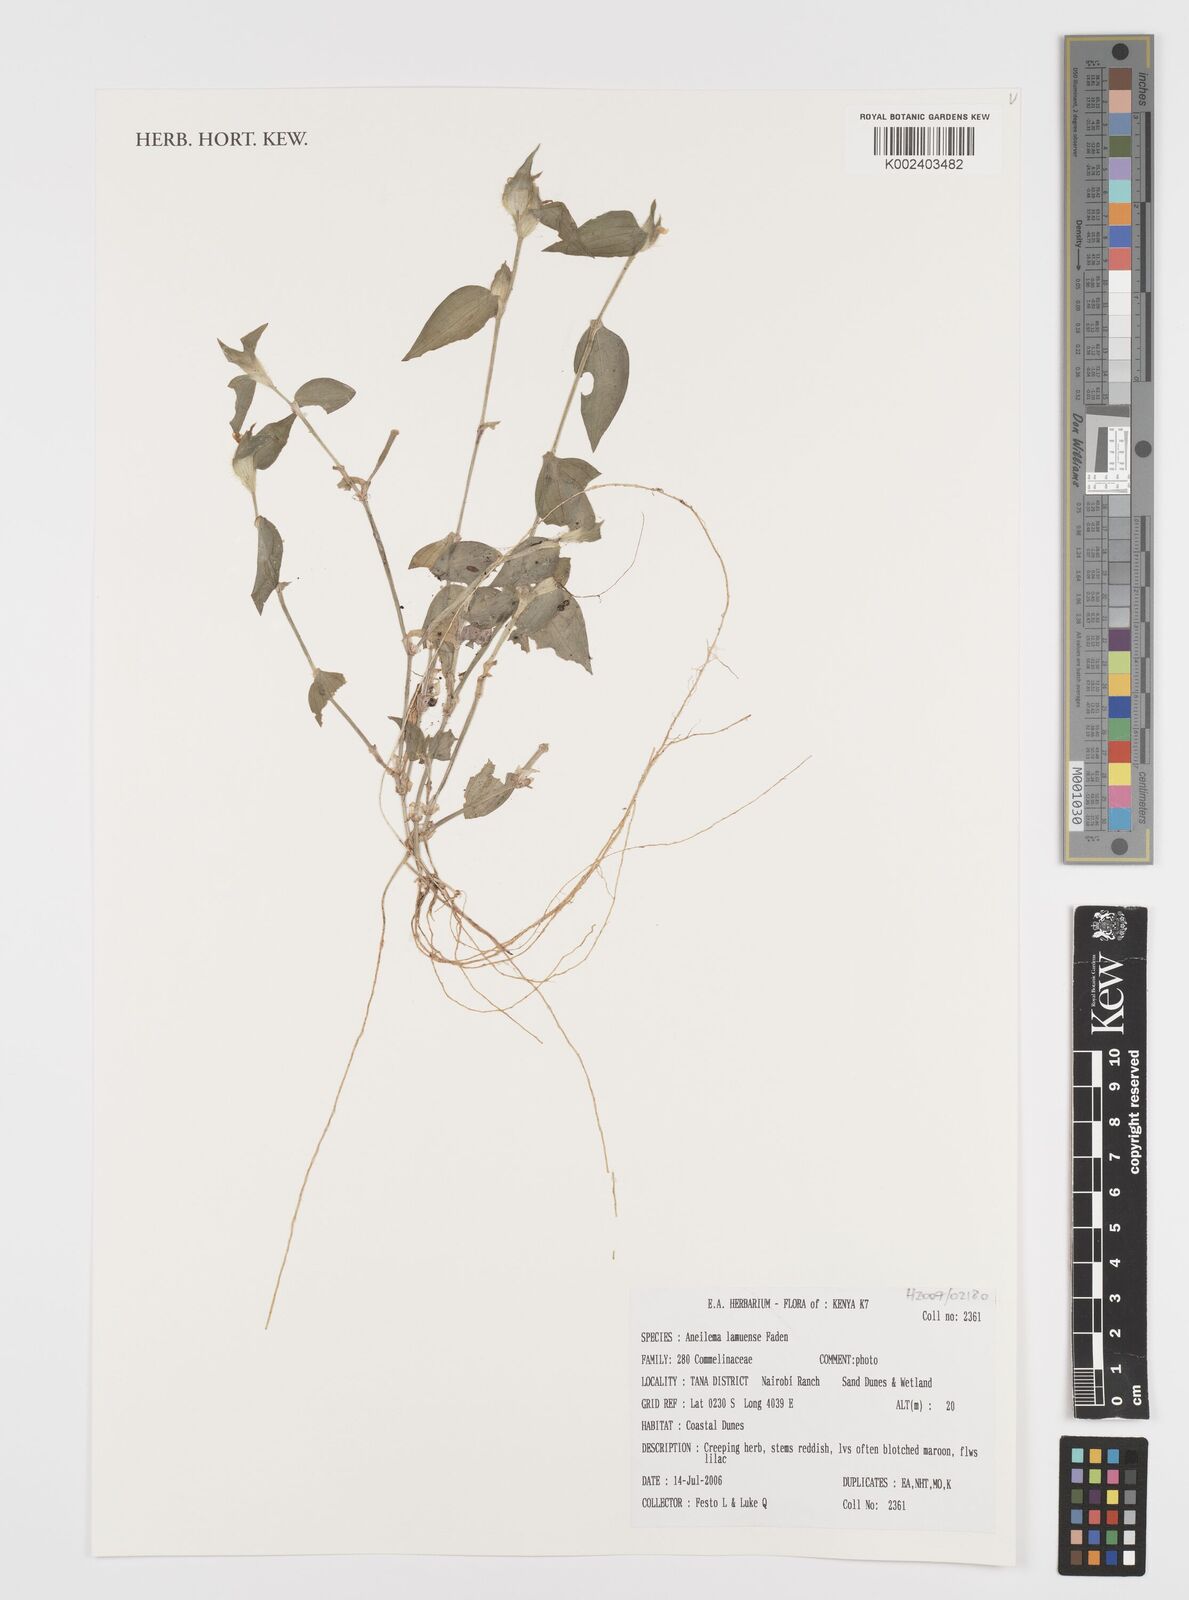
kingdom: Plantae
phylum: Tracheophyta
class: Liliopsida
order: Commelinales
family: Commelinaceae
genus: Aneilema
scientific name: Aneilema lamuense
